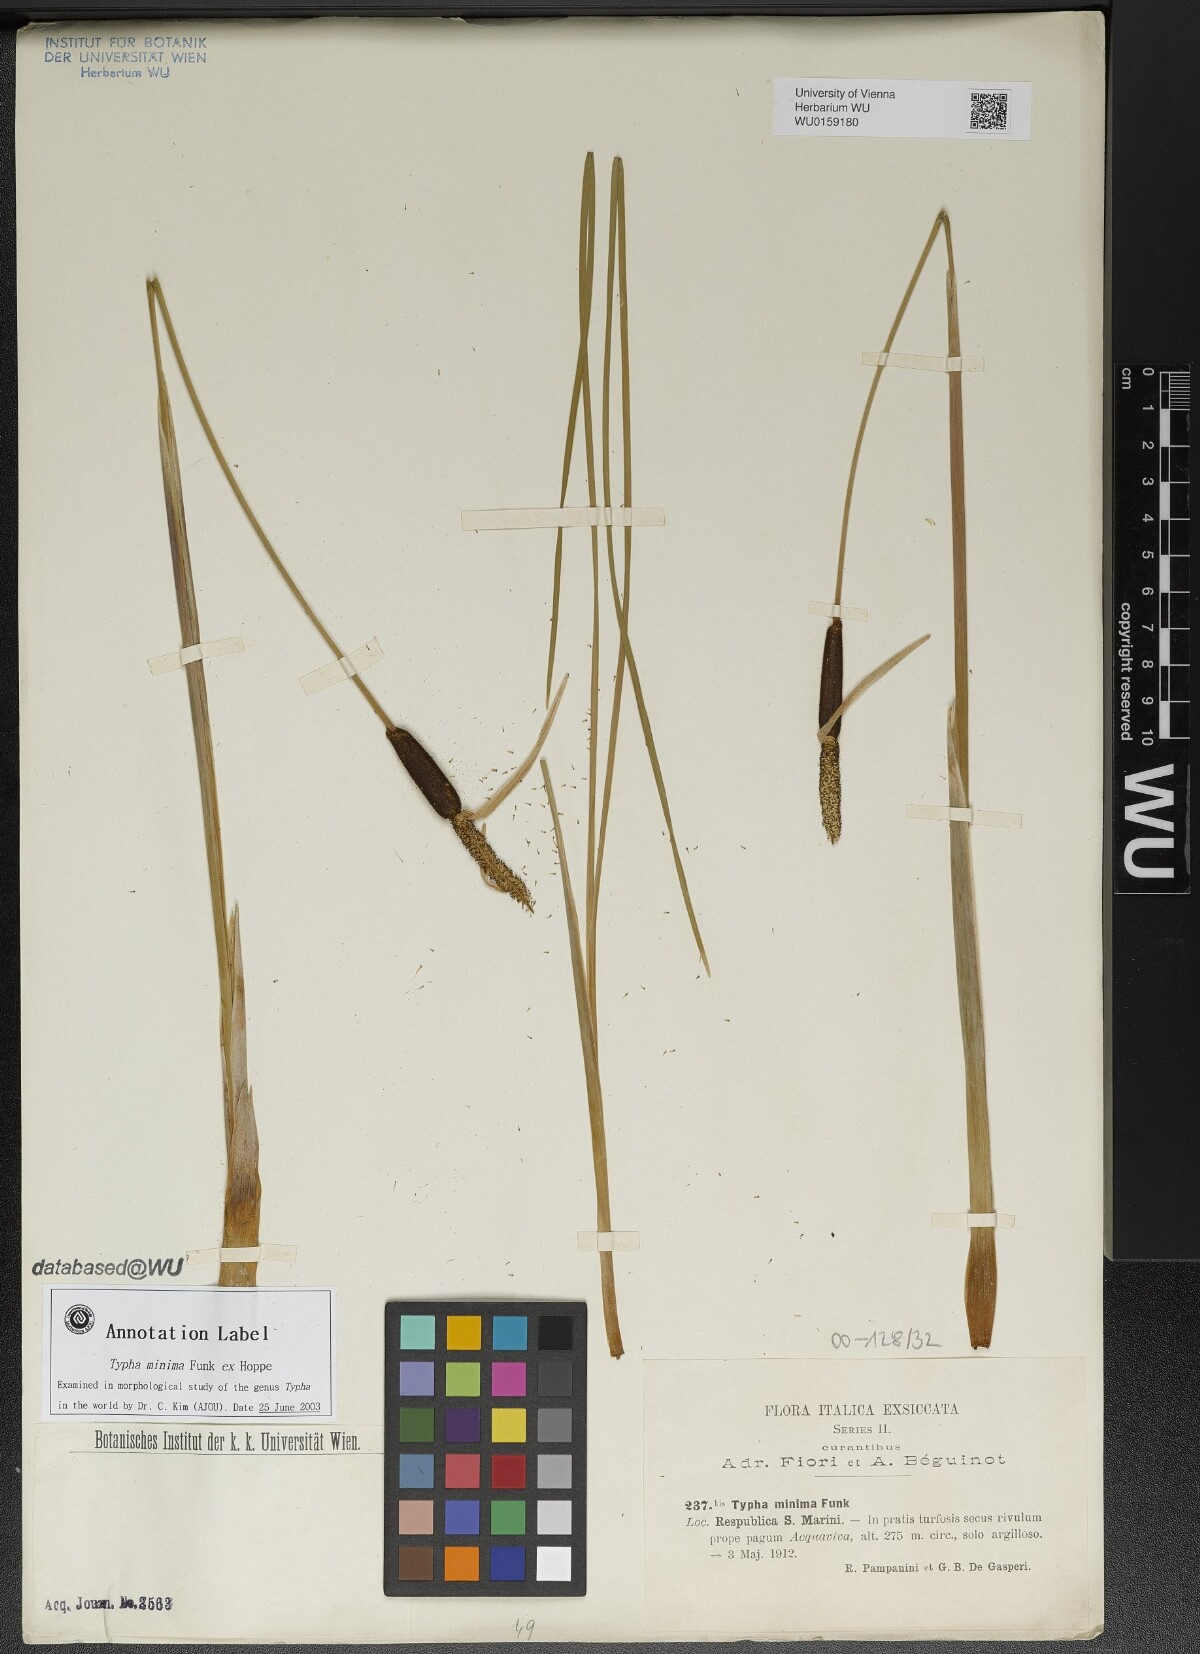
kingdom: Plantae
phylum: Tracheophyta
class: Liliopsida
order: Poales
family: Typhaceae
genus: Typha
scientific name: Typha minima
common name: Dwarf bulrush
